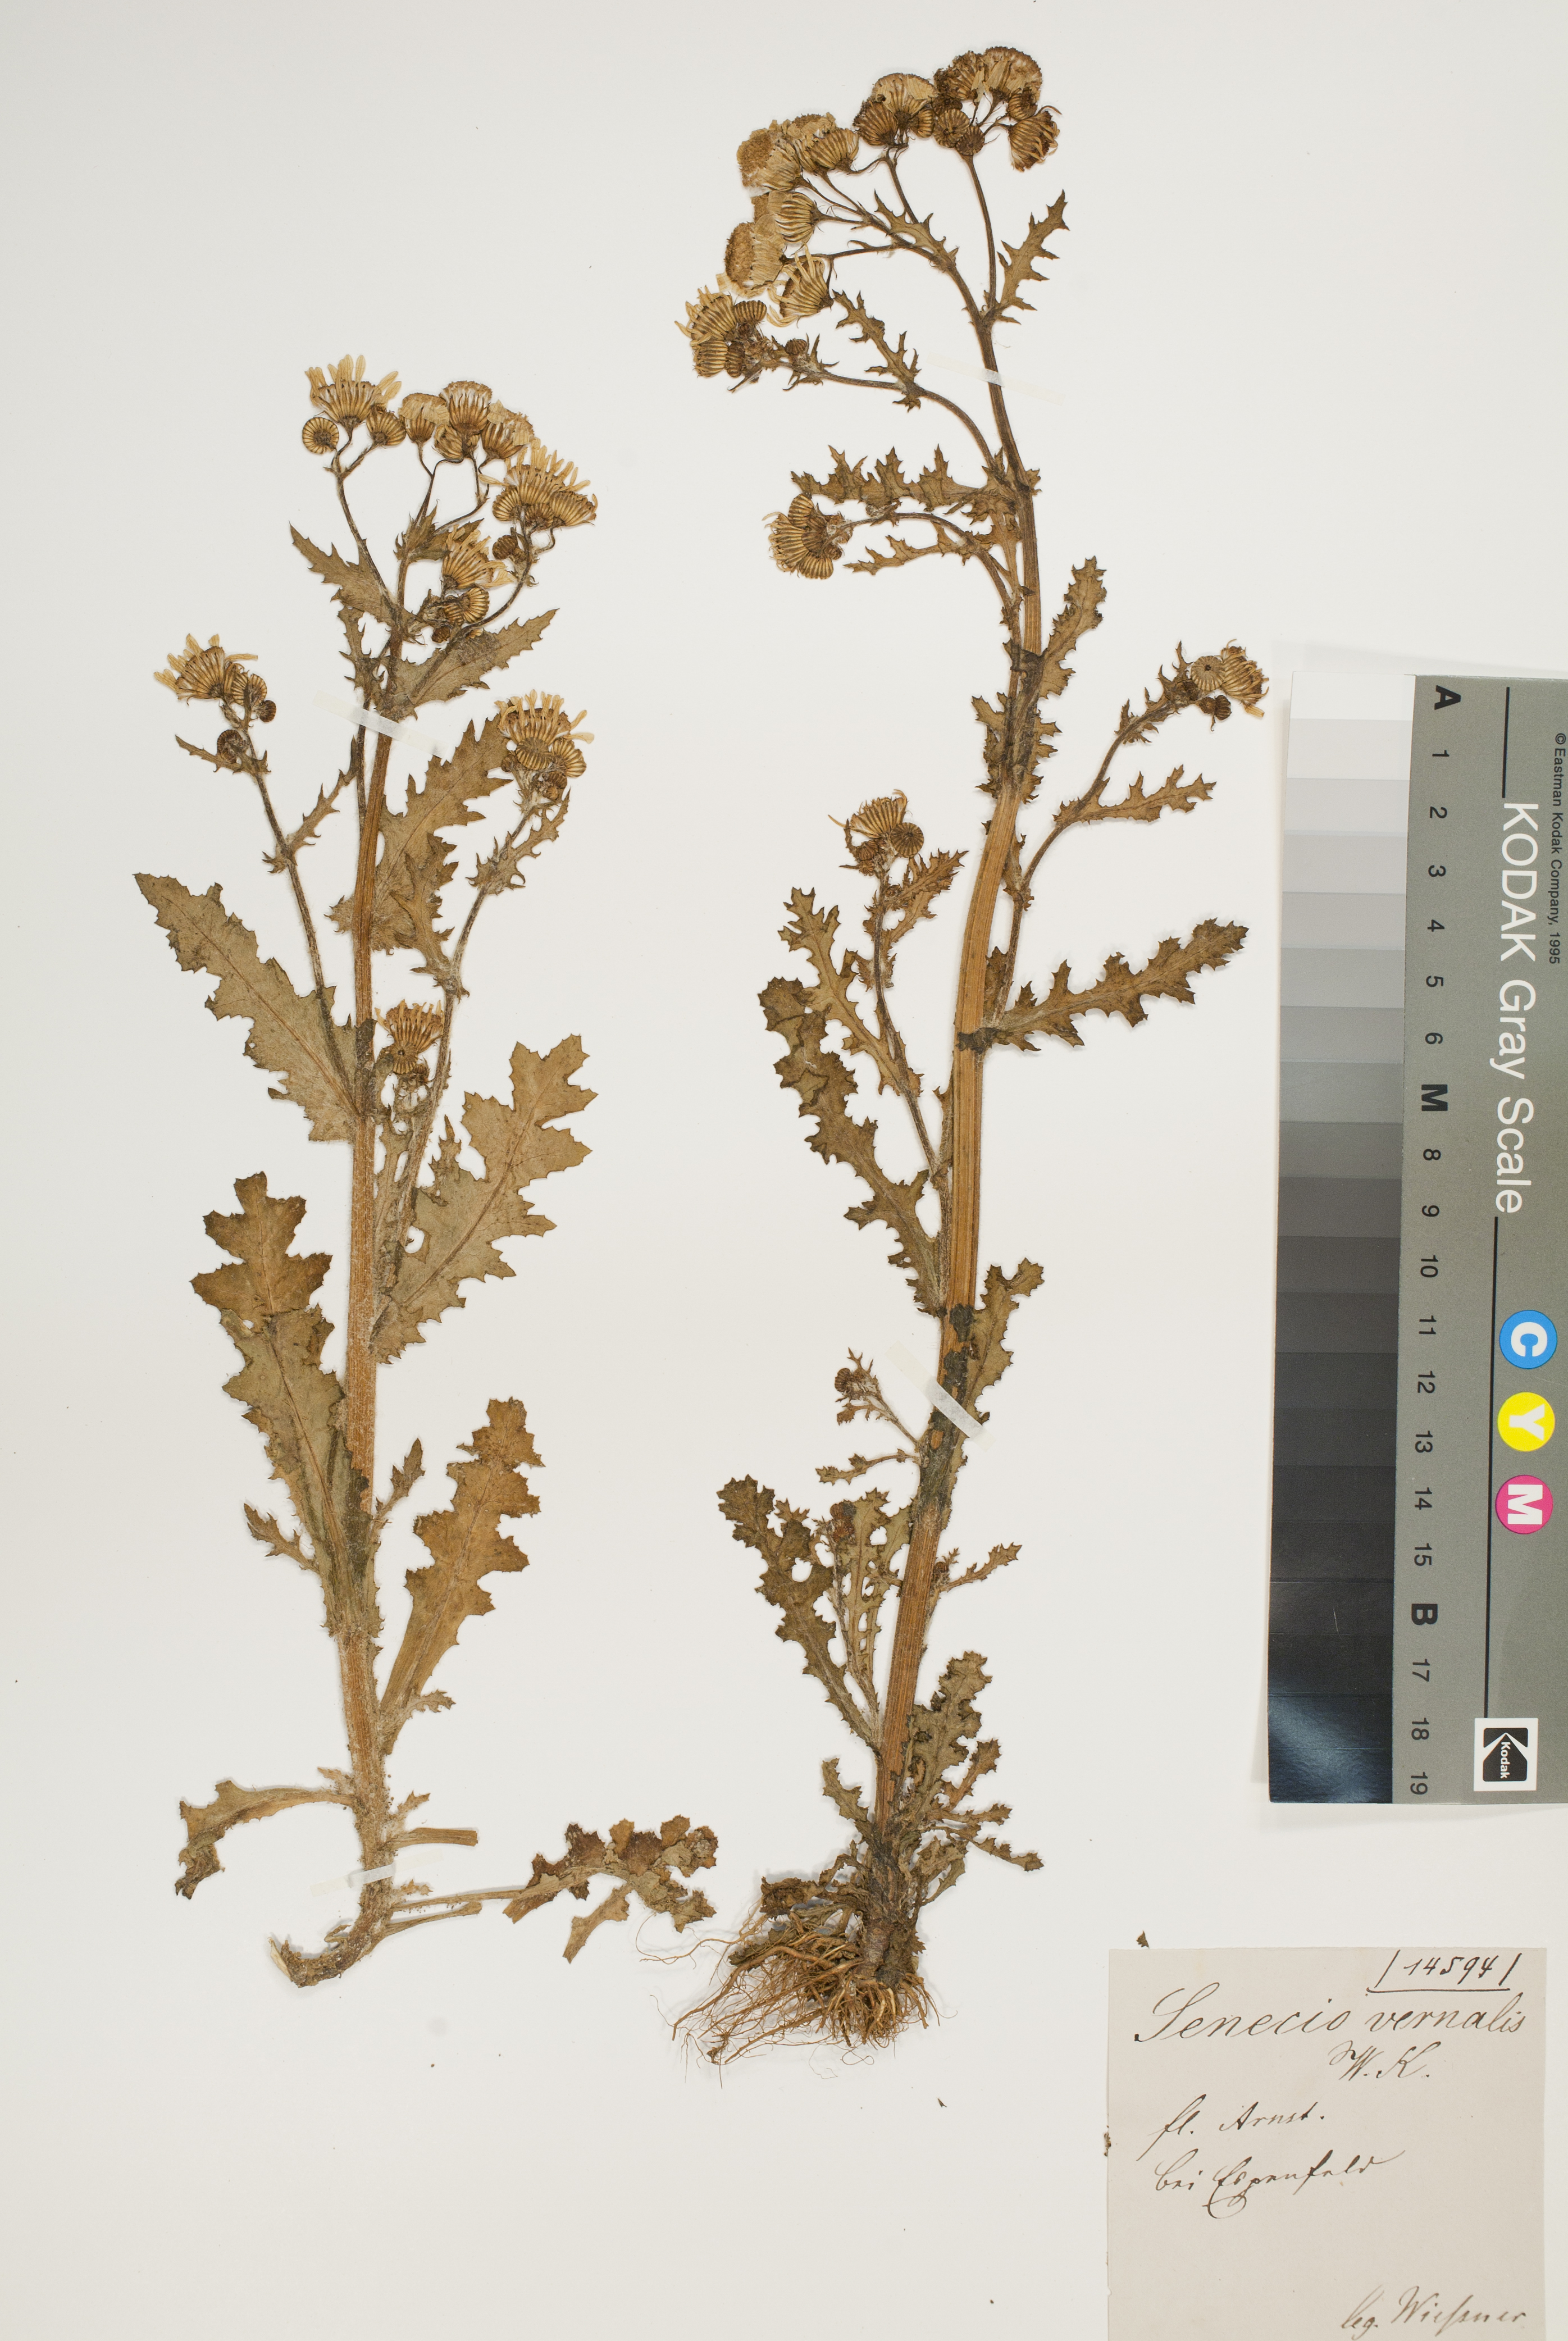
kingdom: Plantae
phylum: Tracheophyta
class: Magnoliopsida
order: Asterales
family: Asteraceae
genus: Senecio
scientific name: Senecio vernalis
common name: Eastern groundsel
